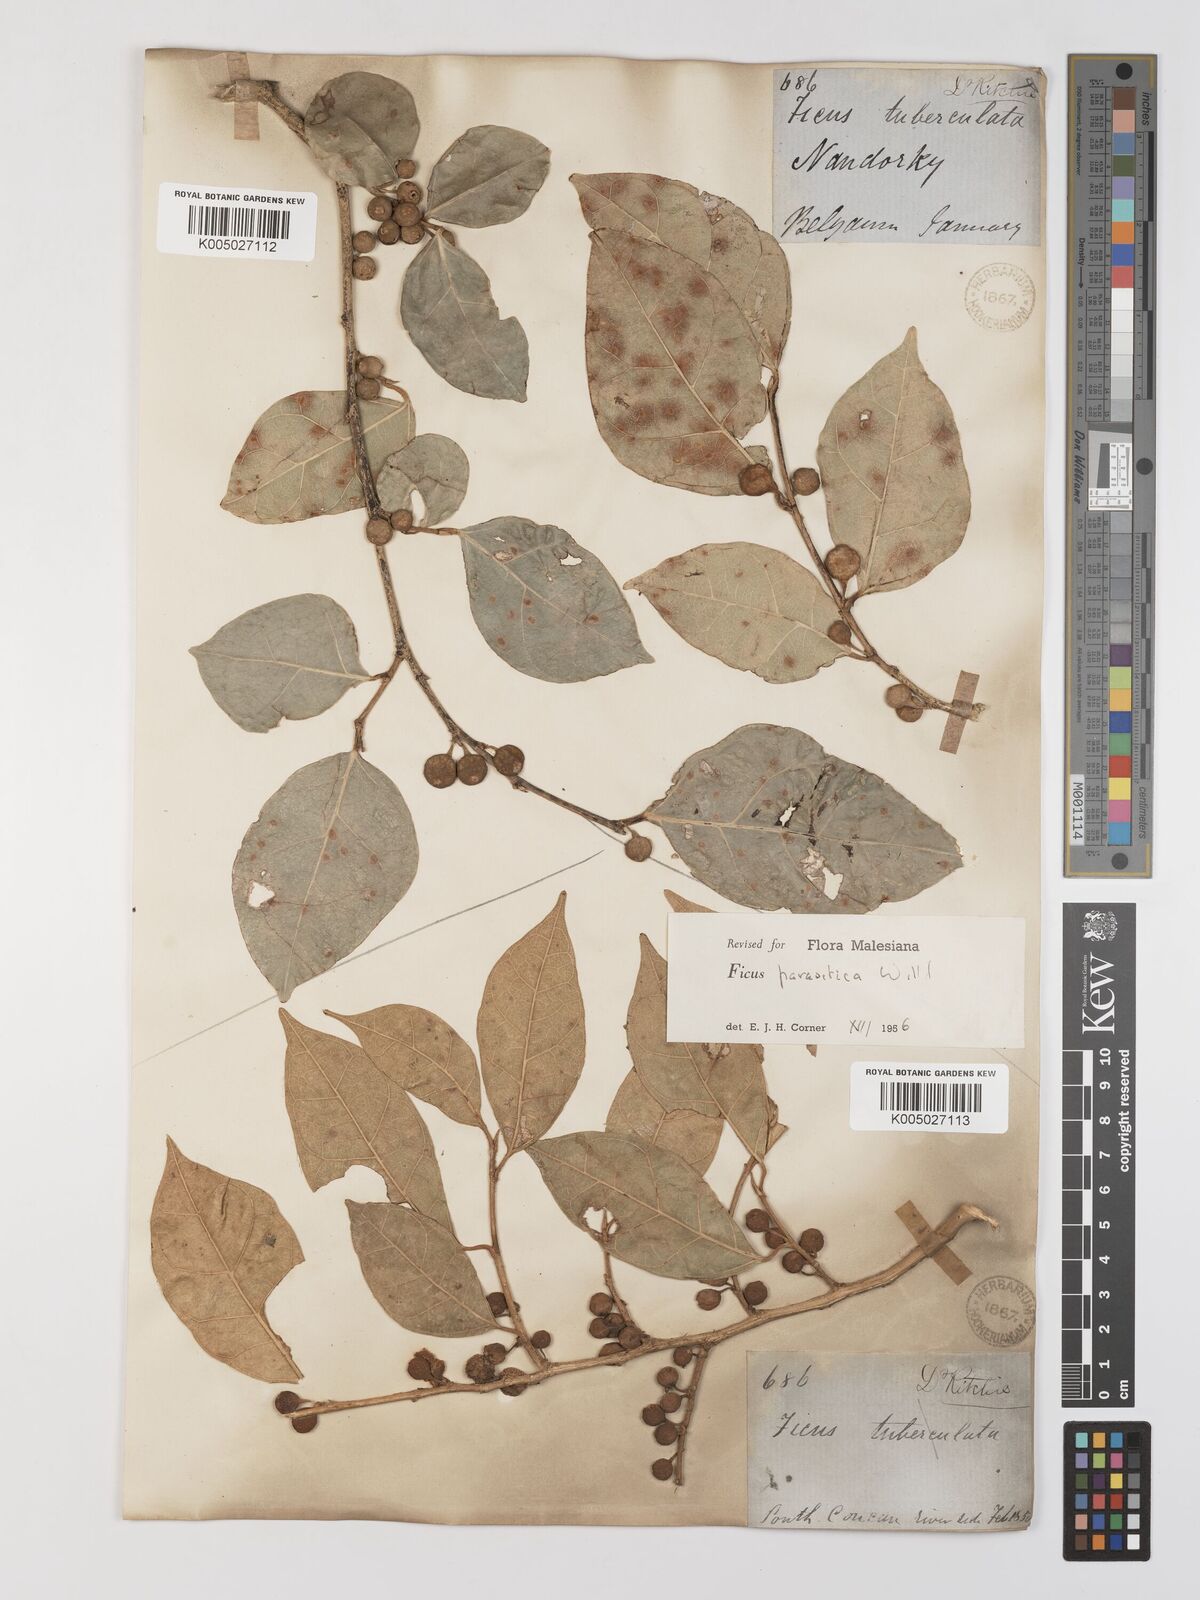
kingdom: Plantae
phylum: Tracheophyta
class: Magnoliopsida
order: Rosales
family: Moraceae
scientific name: Moraceae
